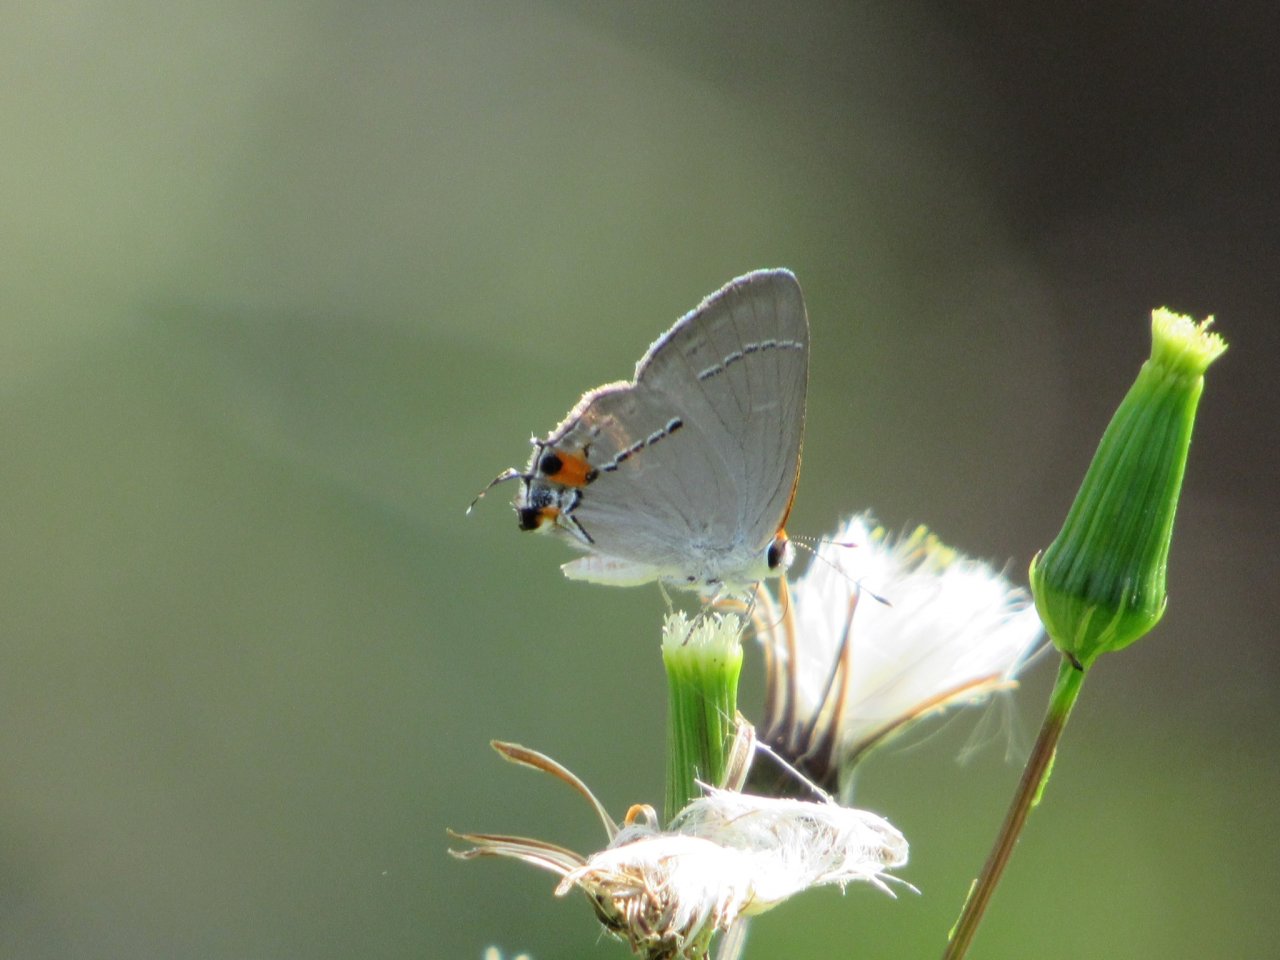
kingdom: Animalia
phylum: Arthropoda
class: Insecta
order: Lepidoptera
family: Lycaenidae
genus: Strymon
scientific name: Strymon melinus
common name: Gray Hairstreak
